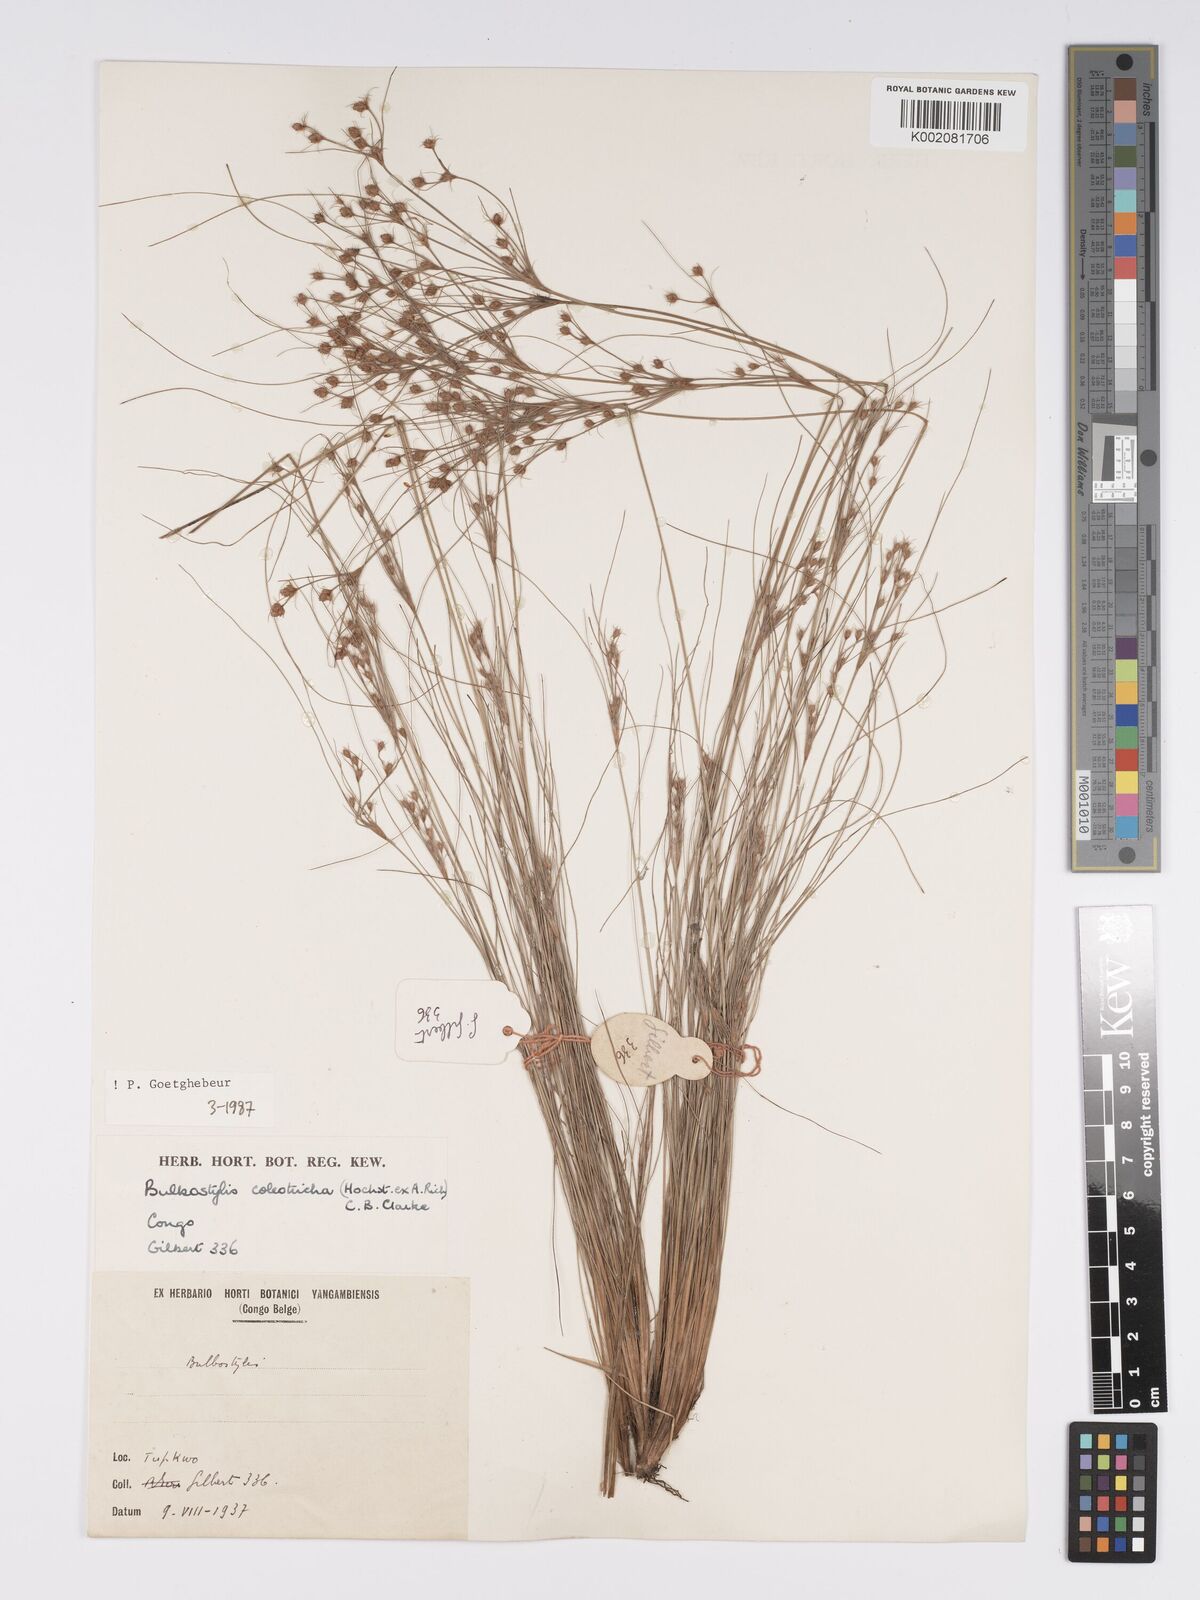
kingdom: Plantae
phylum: Tracheophyta
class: Liliopsida
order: Poales
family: Cyperaceae
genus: Bulbostylis
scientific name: Bulbostylis coleotricha
